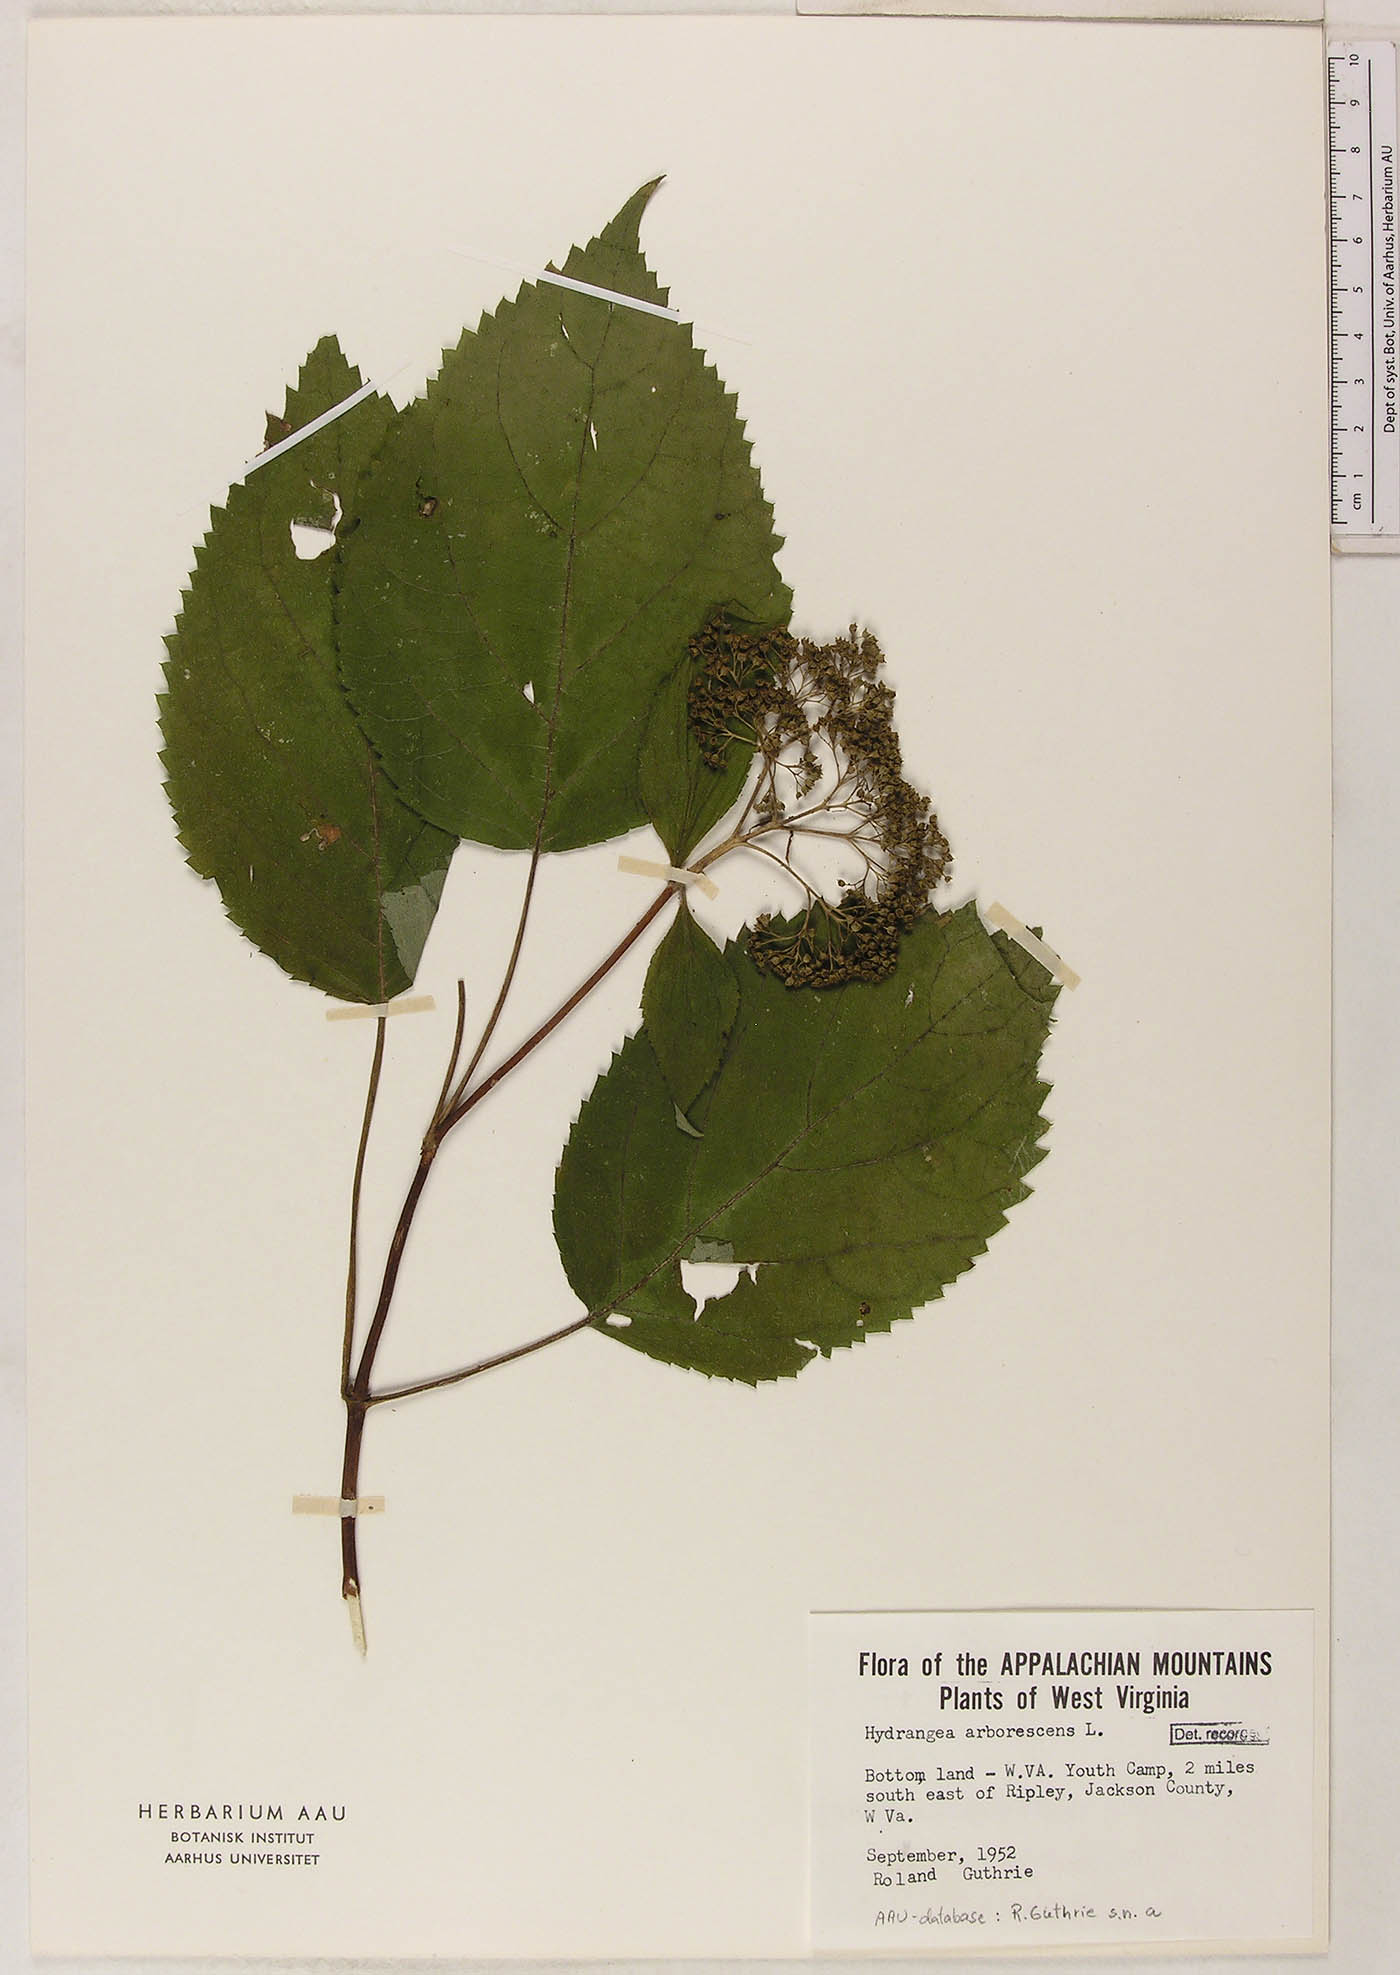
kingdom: Plantae
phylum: Tracheophyta
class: Magnoliopsida
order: Cornales
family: Hydrangeaceae
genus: Hydrangea
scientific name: Hydrangea arborescens
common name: Sevenbark
